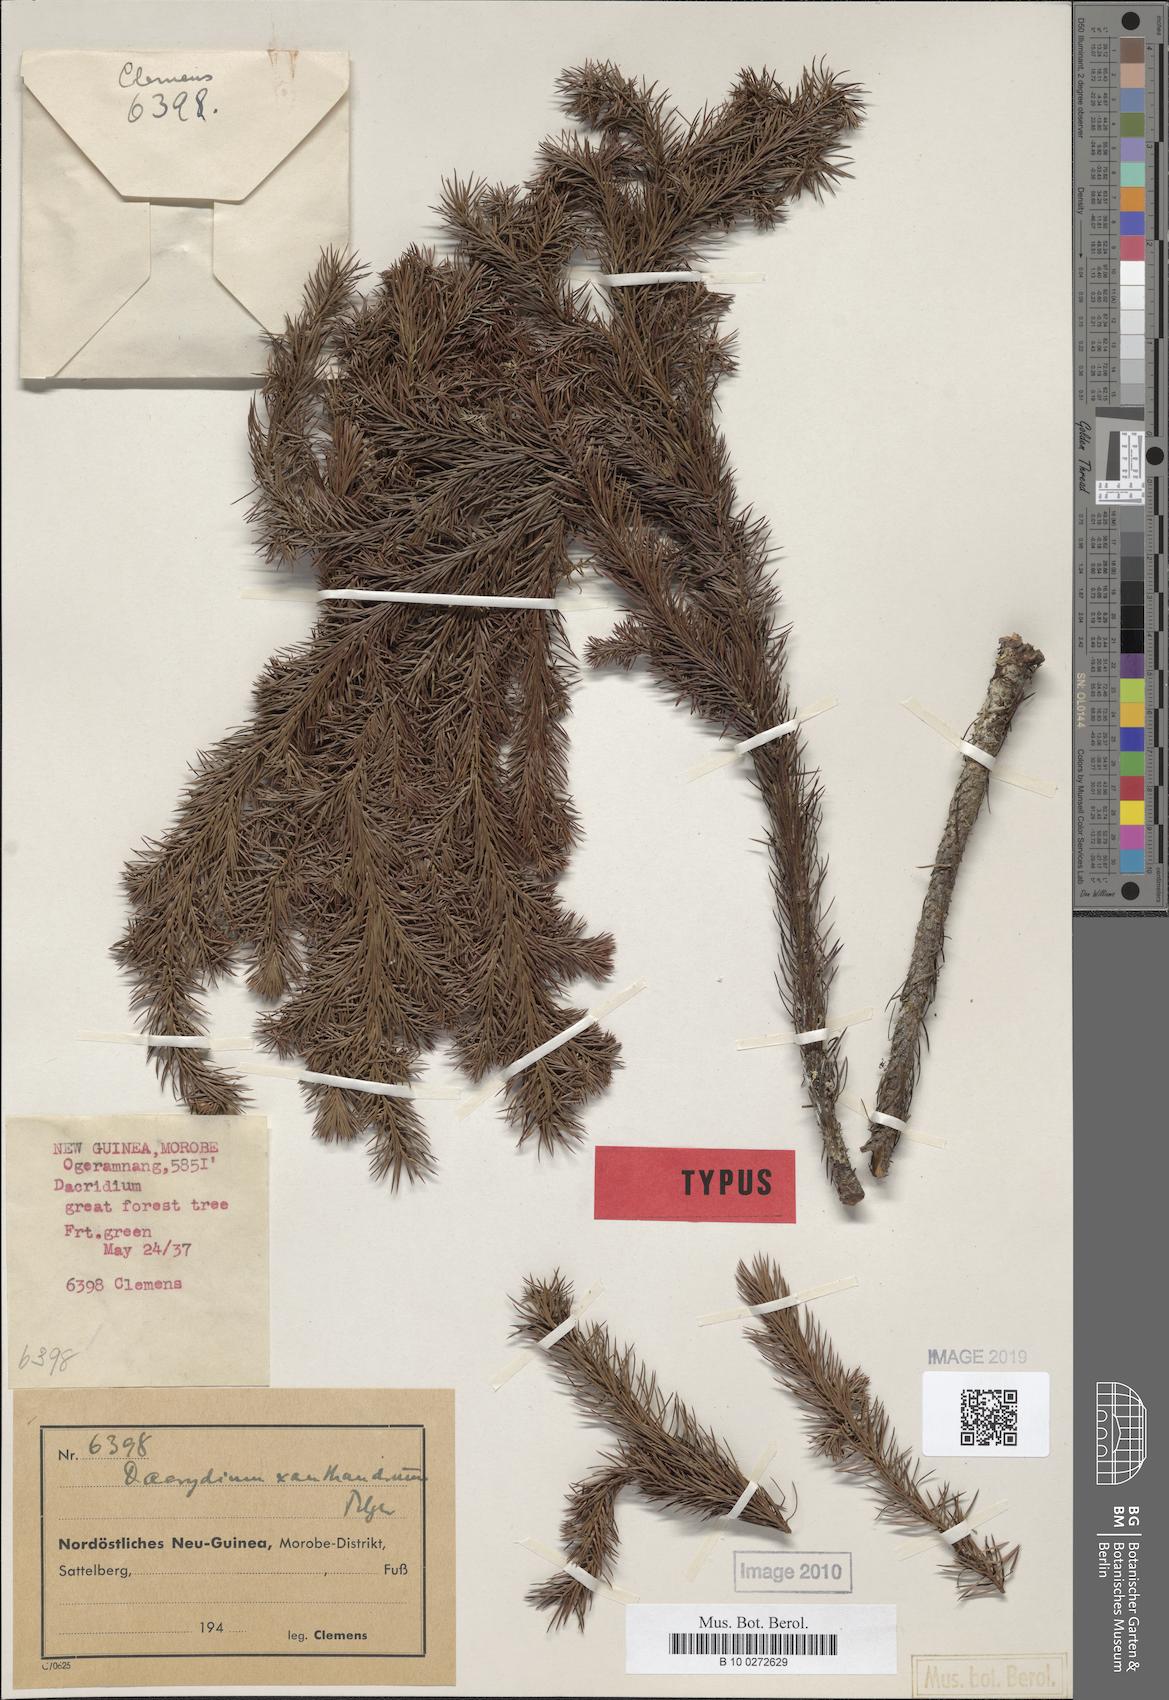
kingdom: Plantae
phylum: Tracheophyta
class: Pinopsida
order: Pinales
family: Podocarpaceae
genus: Dacrydium
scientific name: Dacrydium xanthandrum
